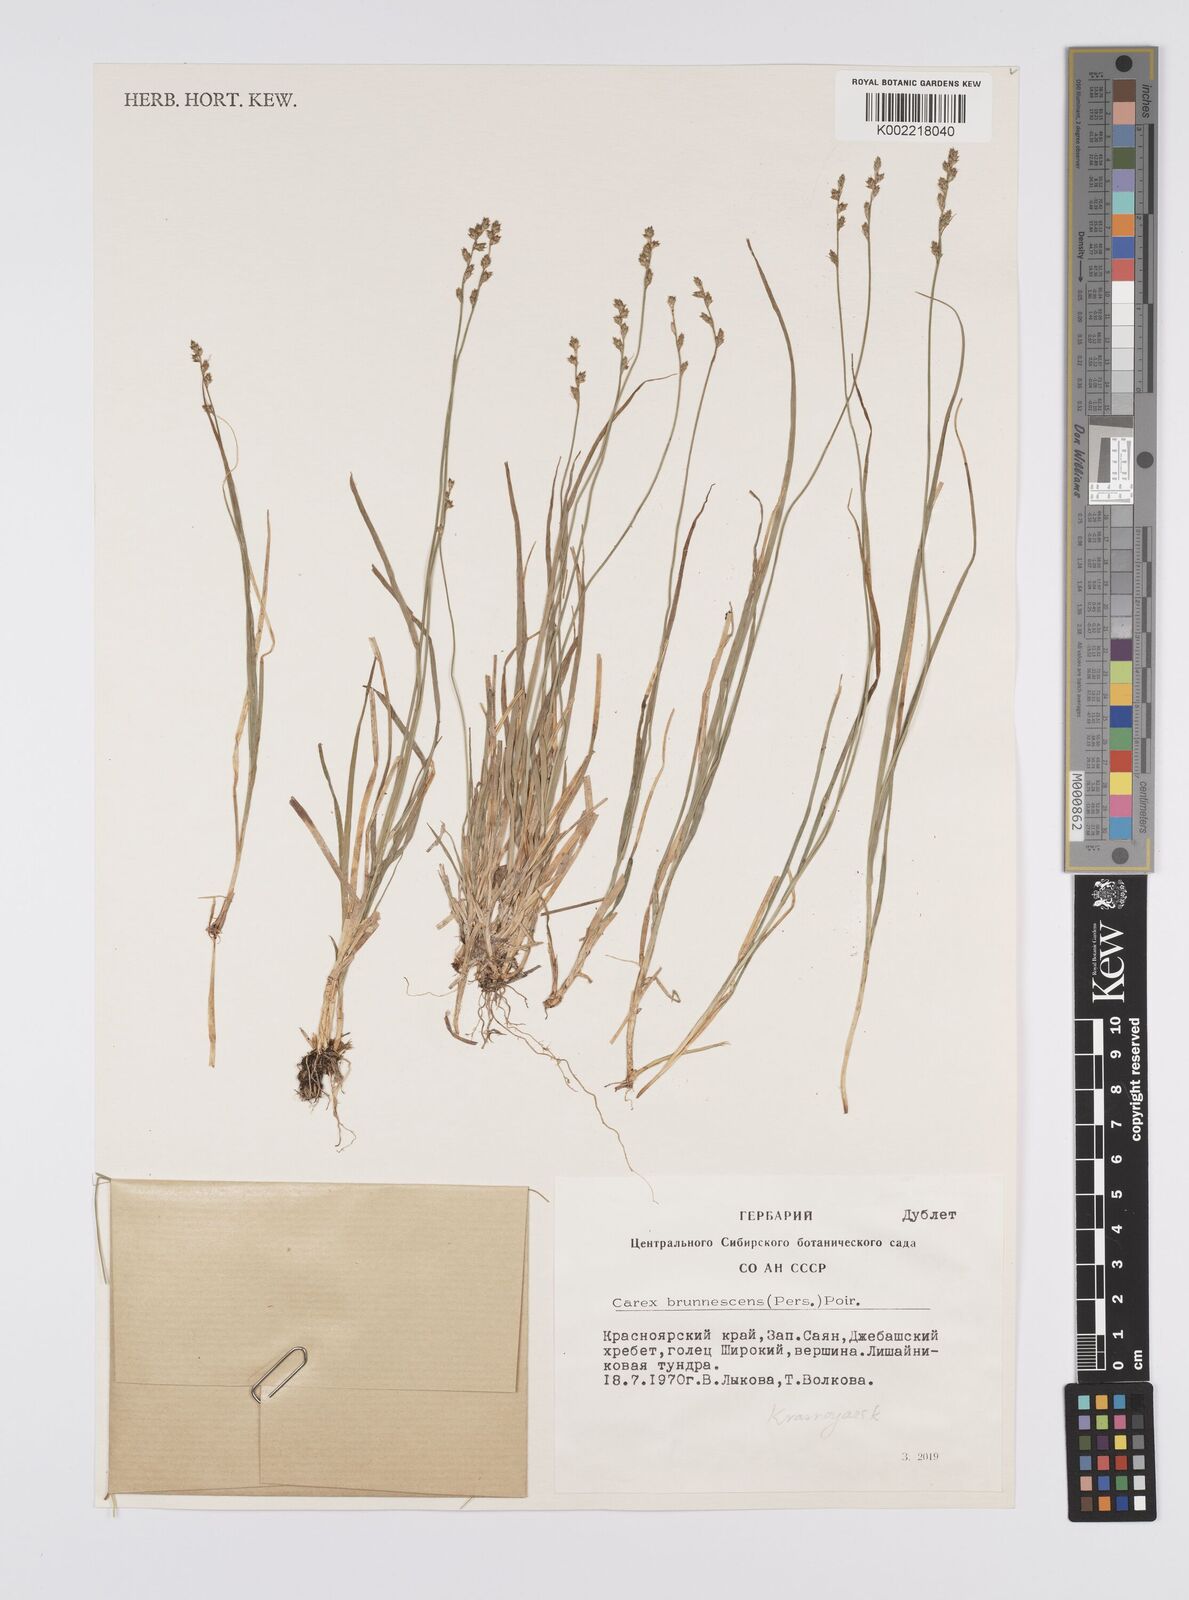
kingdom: Plantae
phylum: Tracheophyta
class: Liliopsida
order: Poales
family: Cyperaceae
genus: Carex
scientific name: Carex brunnescens
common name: Brown sedge
